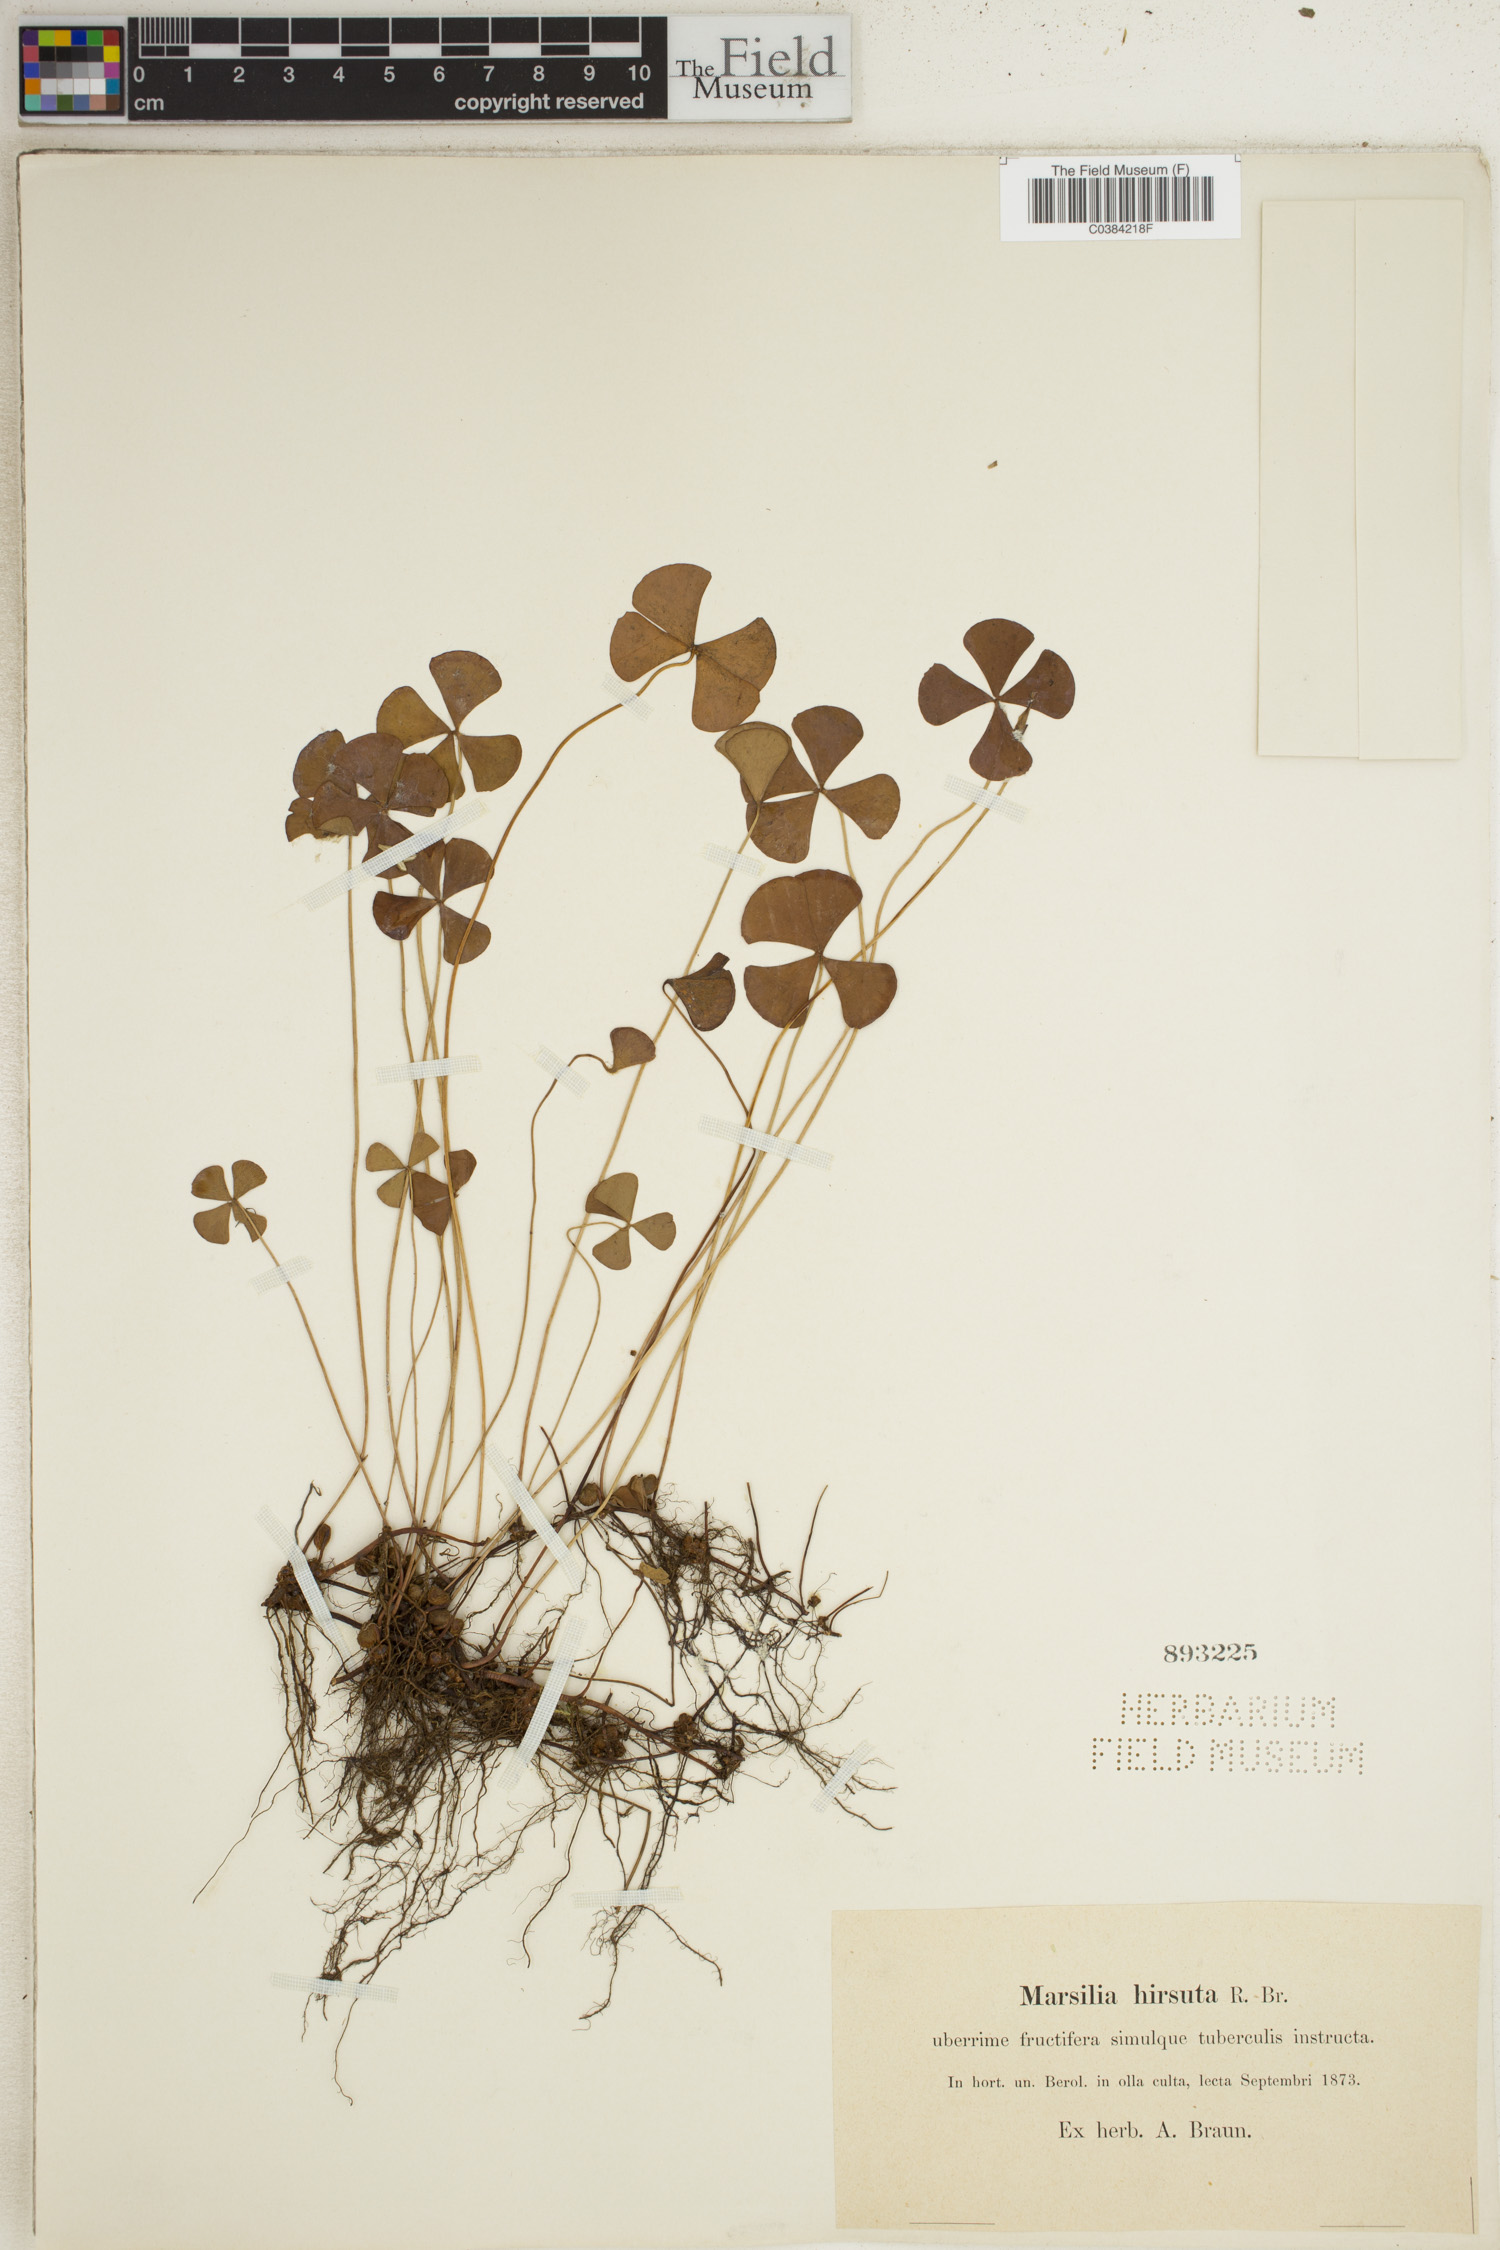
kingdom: Plantae
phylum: Tracheophyta
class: Polypodiopsida
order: Salviniales
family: Marsileaceae
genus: Marsilea
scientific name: Marsilea hirsuta
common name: Rough waterclover
